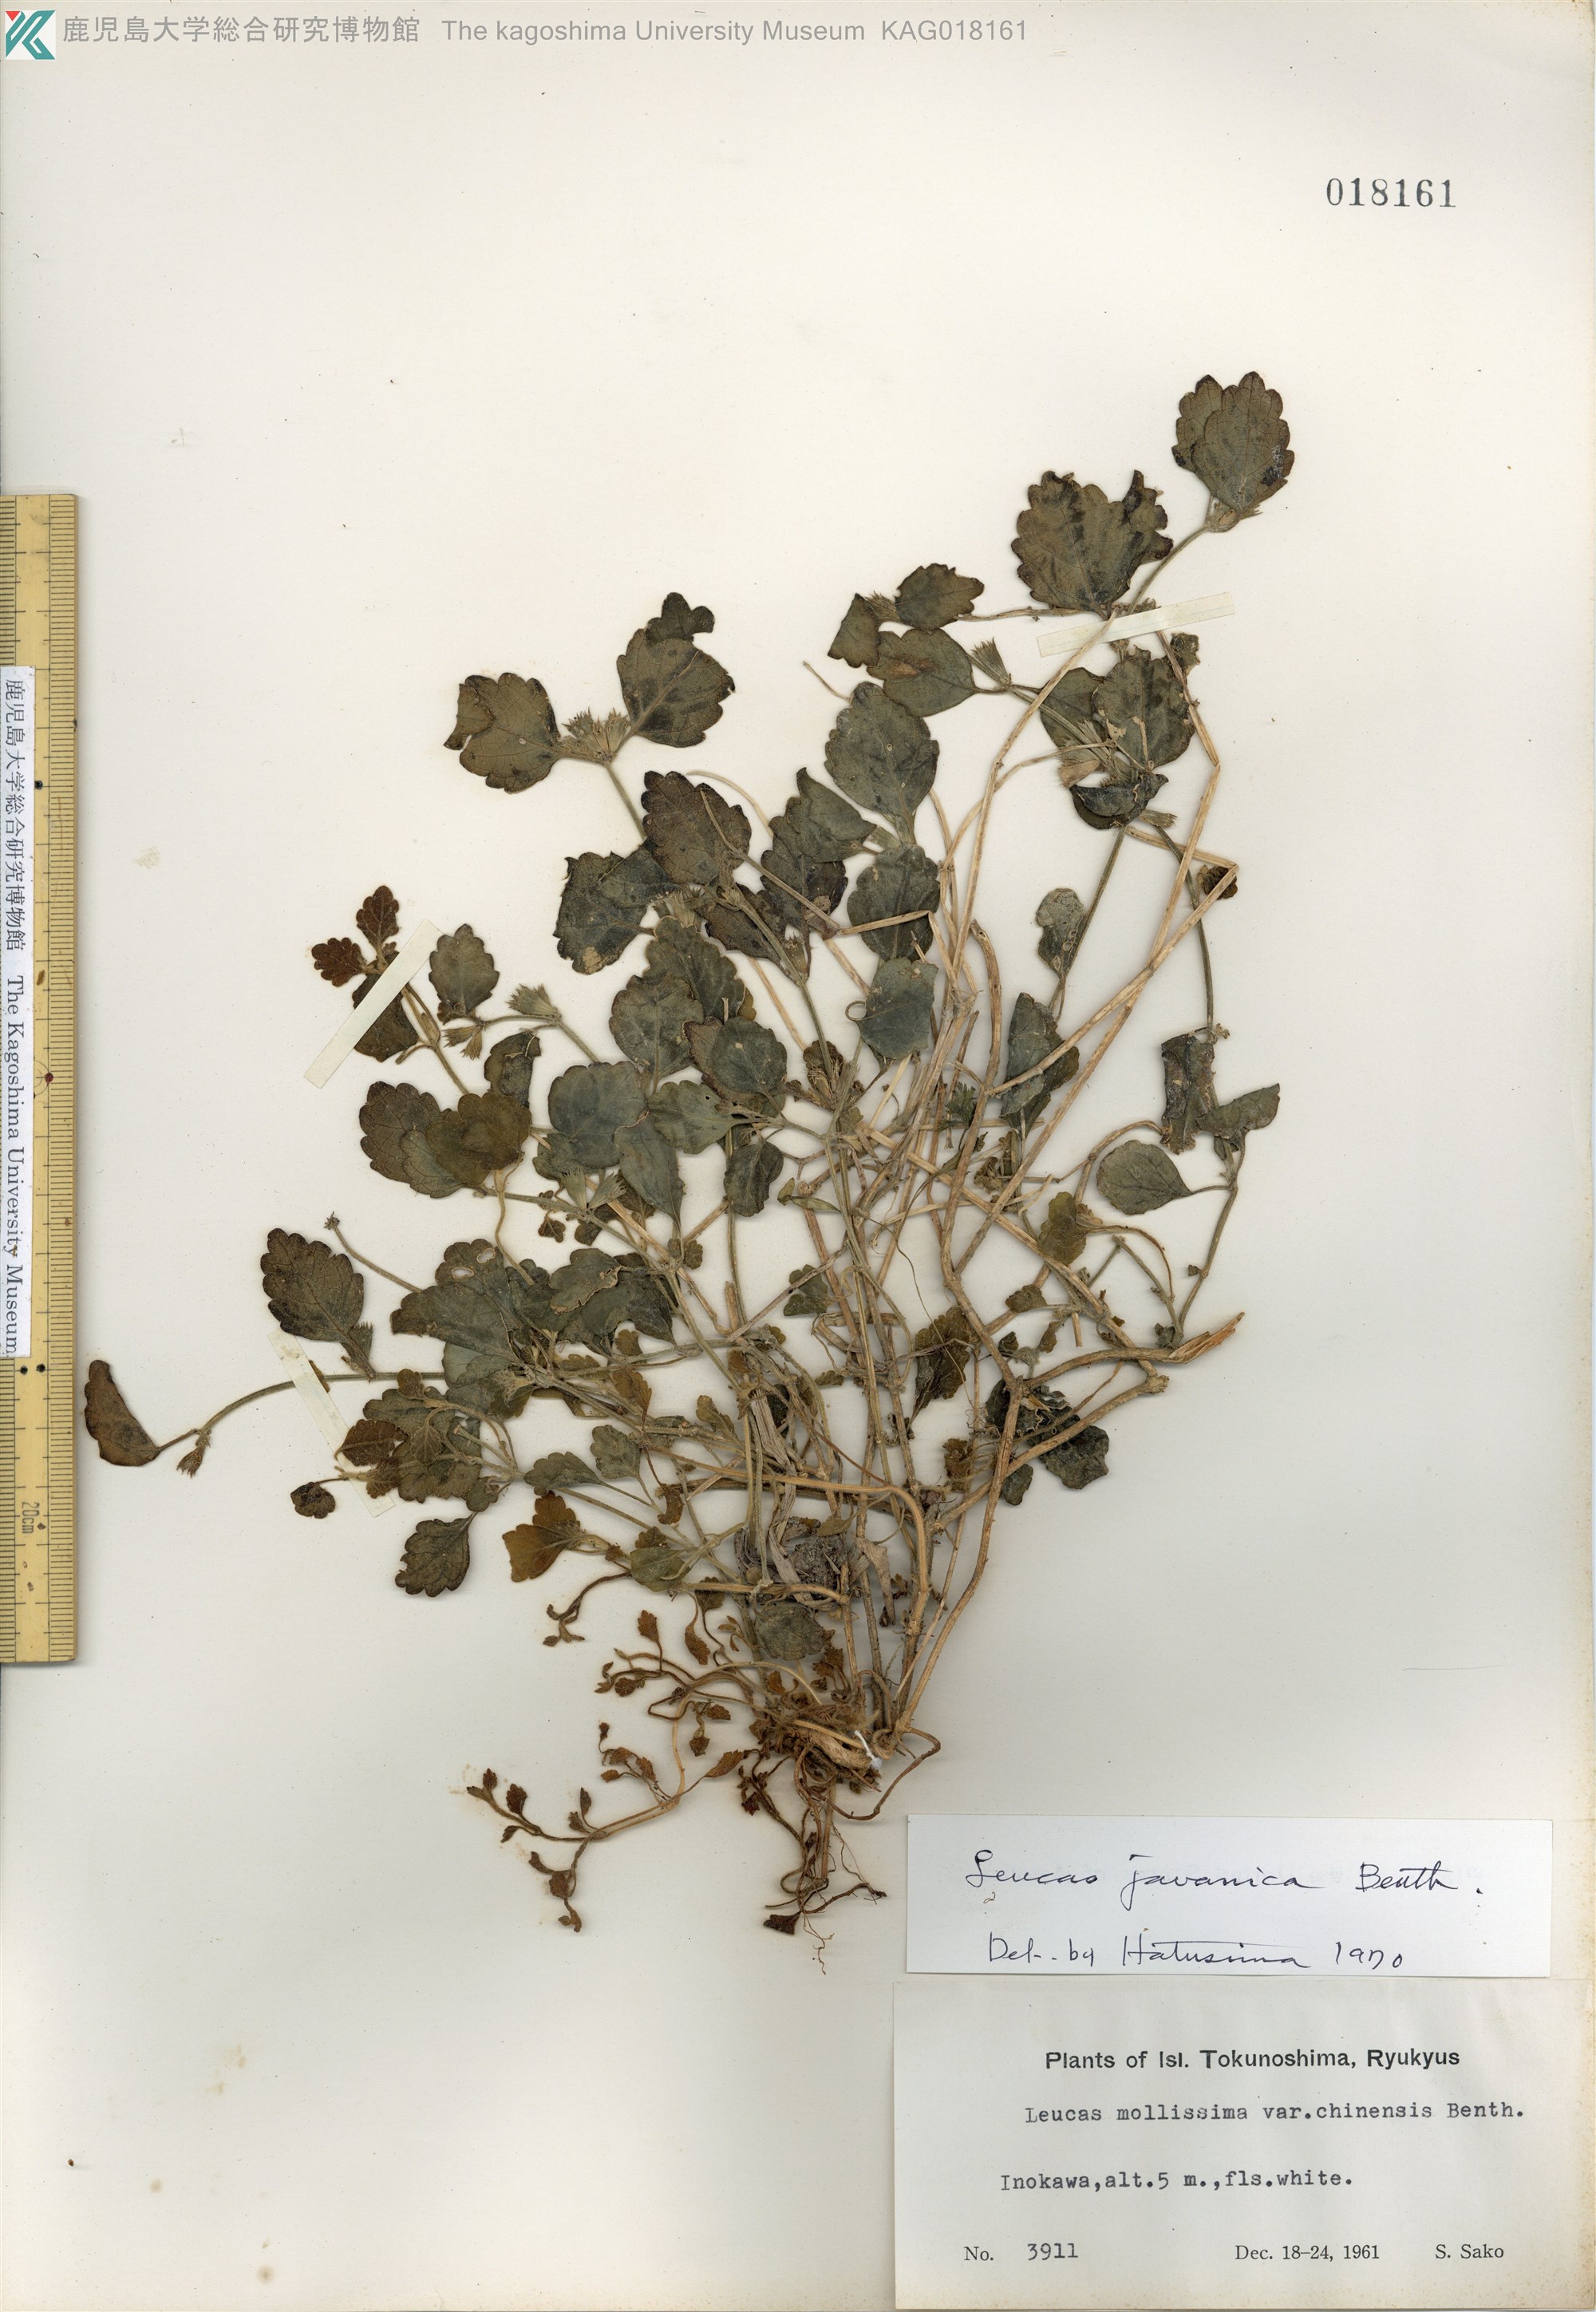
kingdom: Plantae
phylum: Tracheophyta
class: Magnoliopsida
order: Lamiales
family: Lamiaceae
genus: Leucas
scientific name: Leucas chinensis
